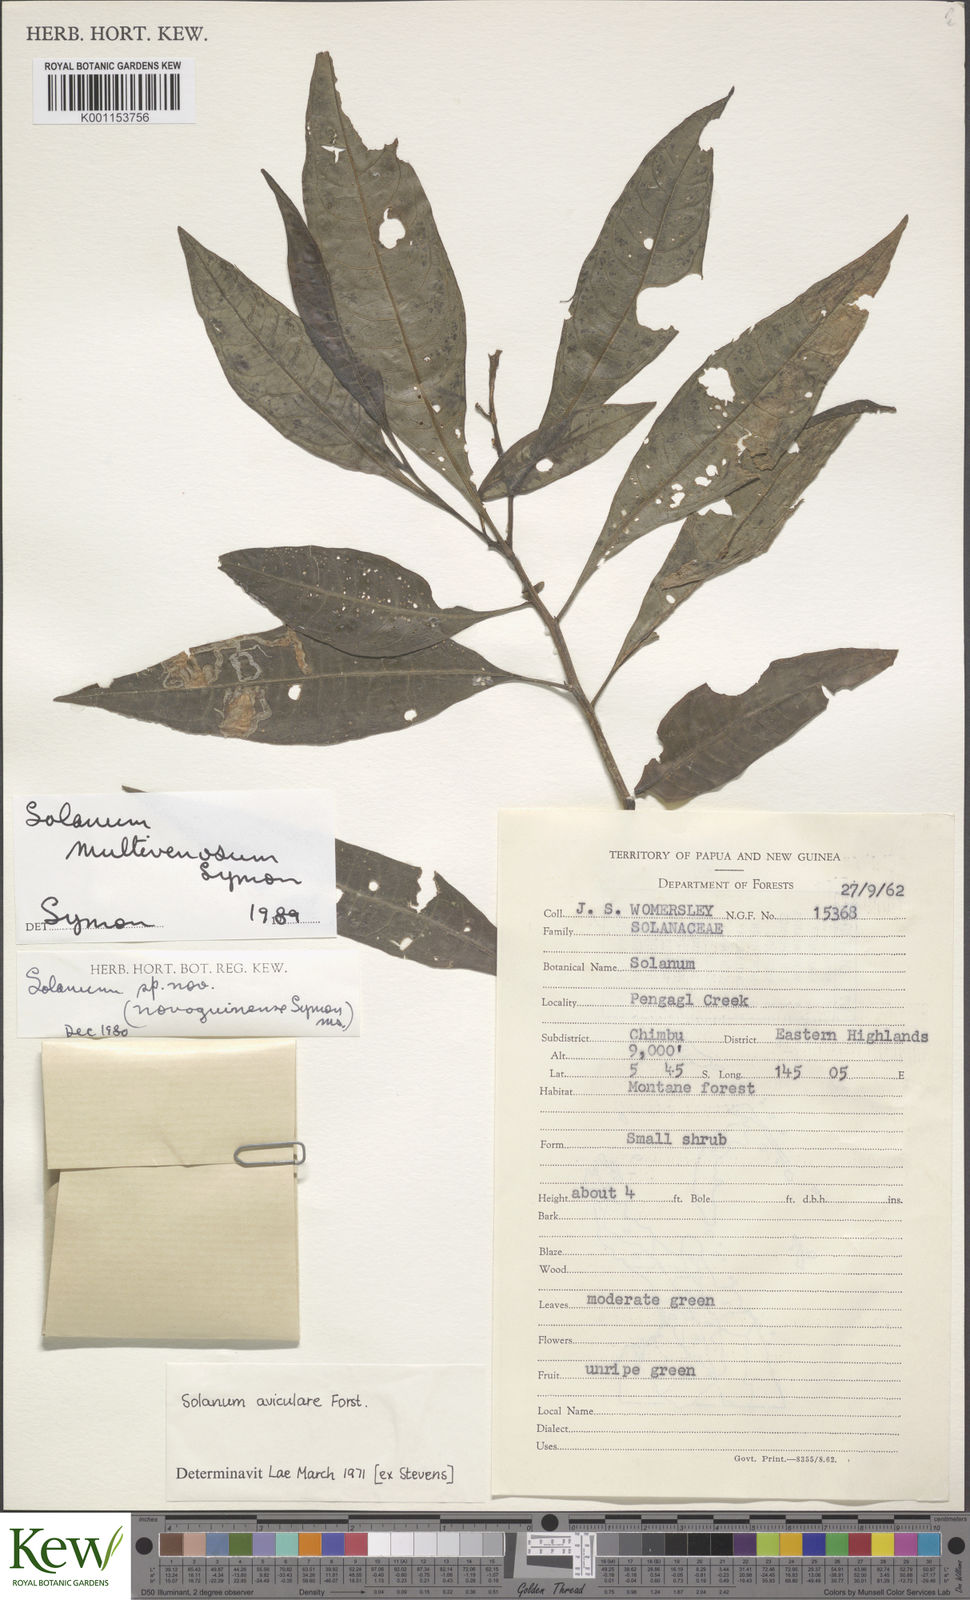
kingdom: Plantae
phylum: Tracheophyta
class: Magnoliopsida
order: Solanales
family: Solanaceae
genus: Solanum
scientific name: Solanum multivenosum
